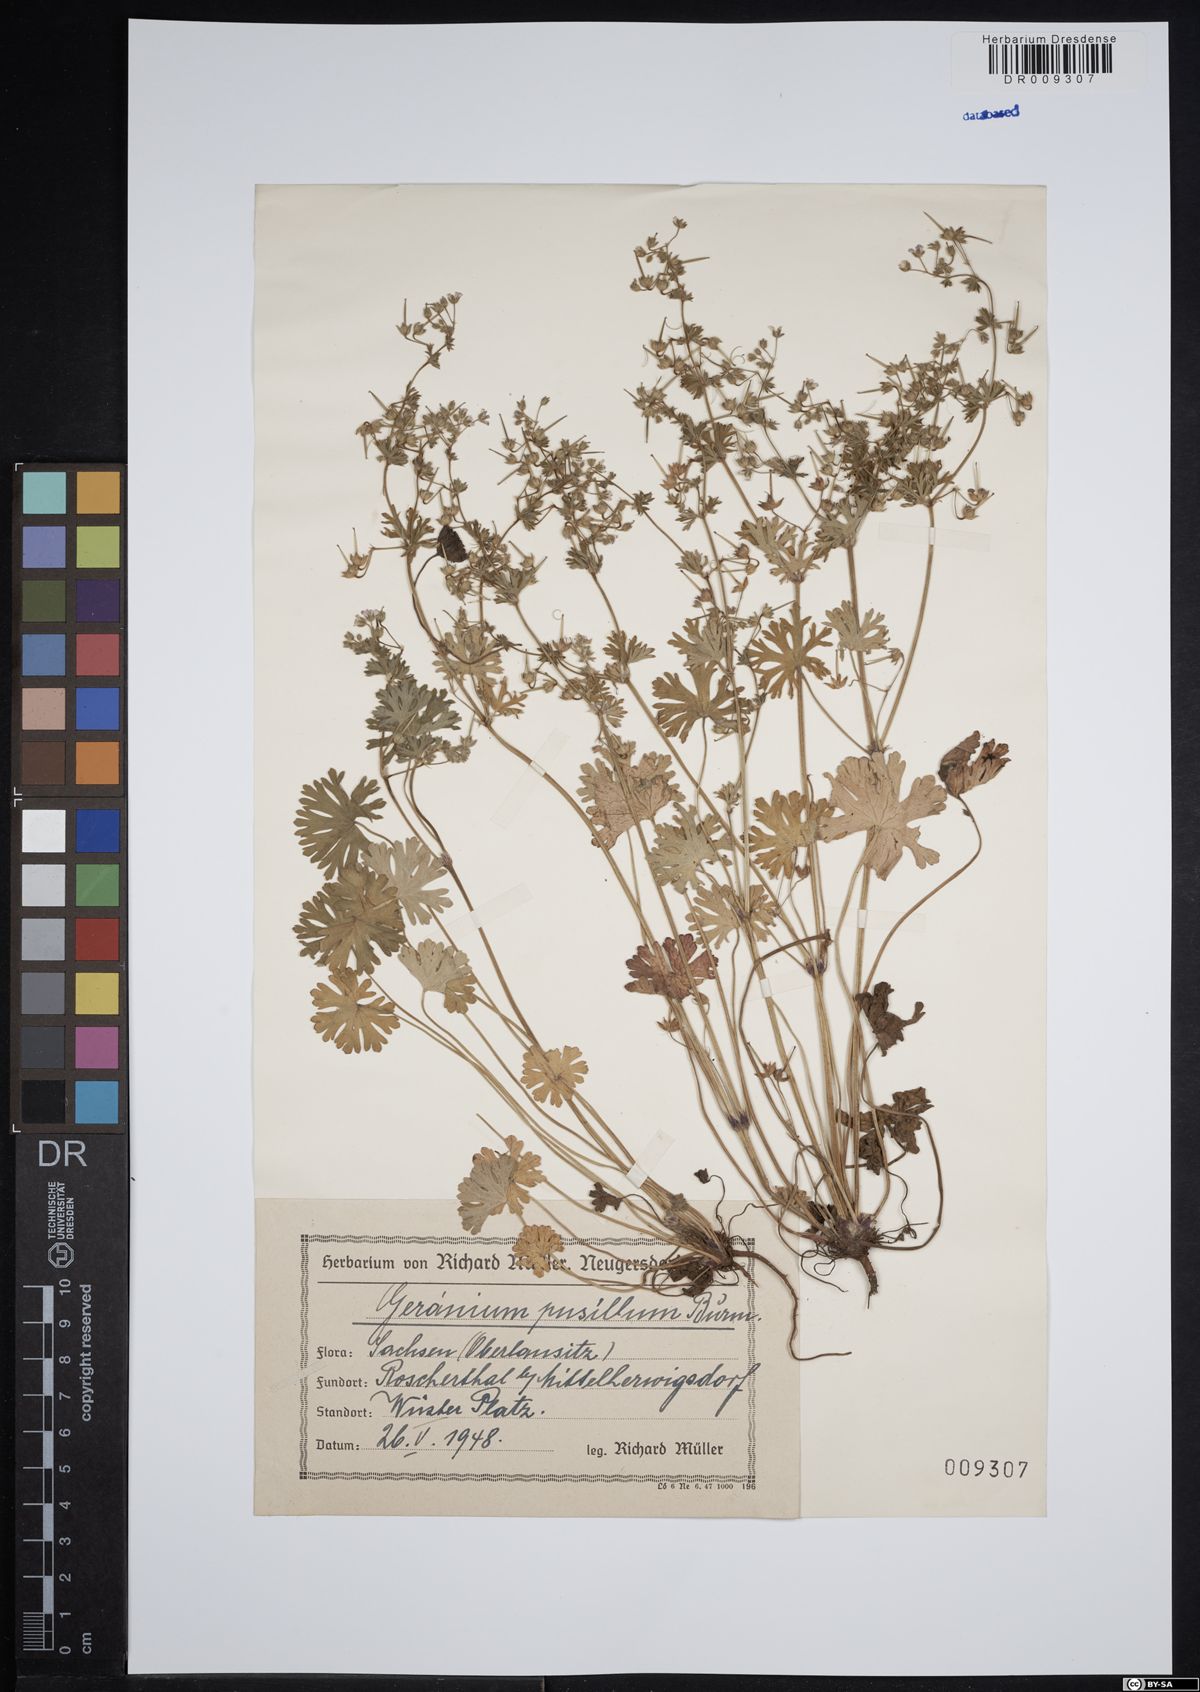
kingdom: Plantae
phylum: Tracheophyta
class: Magnoliopsida
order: Geraniales
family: Geraniaceae
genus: Geranium
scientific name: Geranium pusillum
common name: Small geranium
